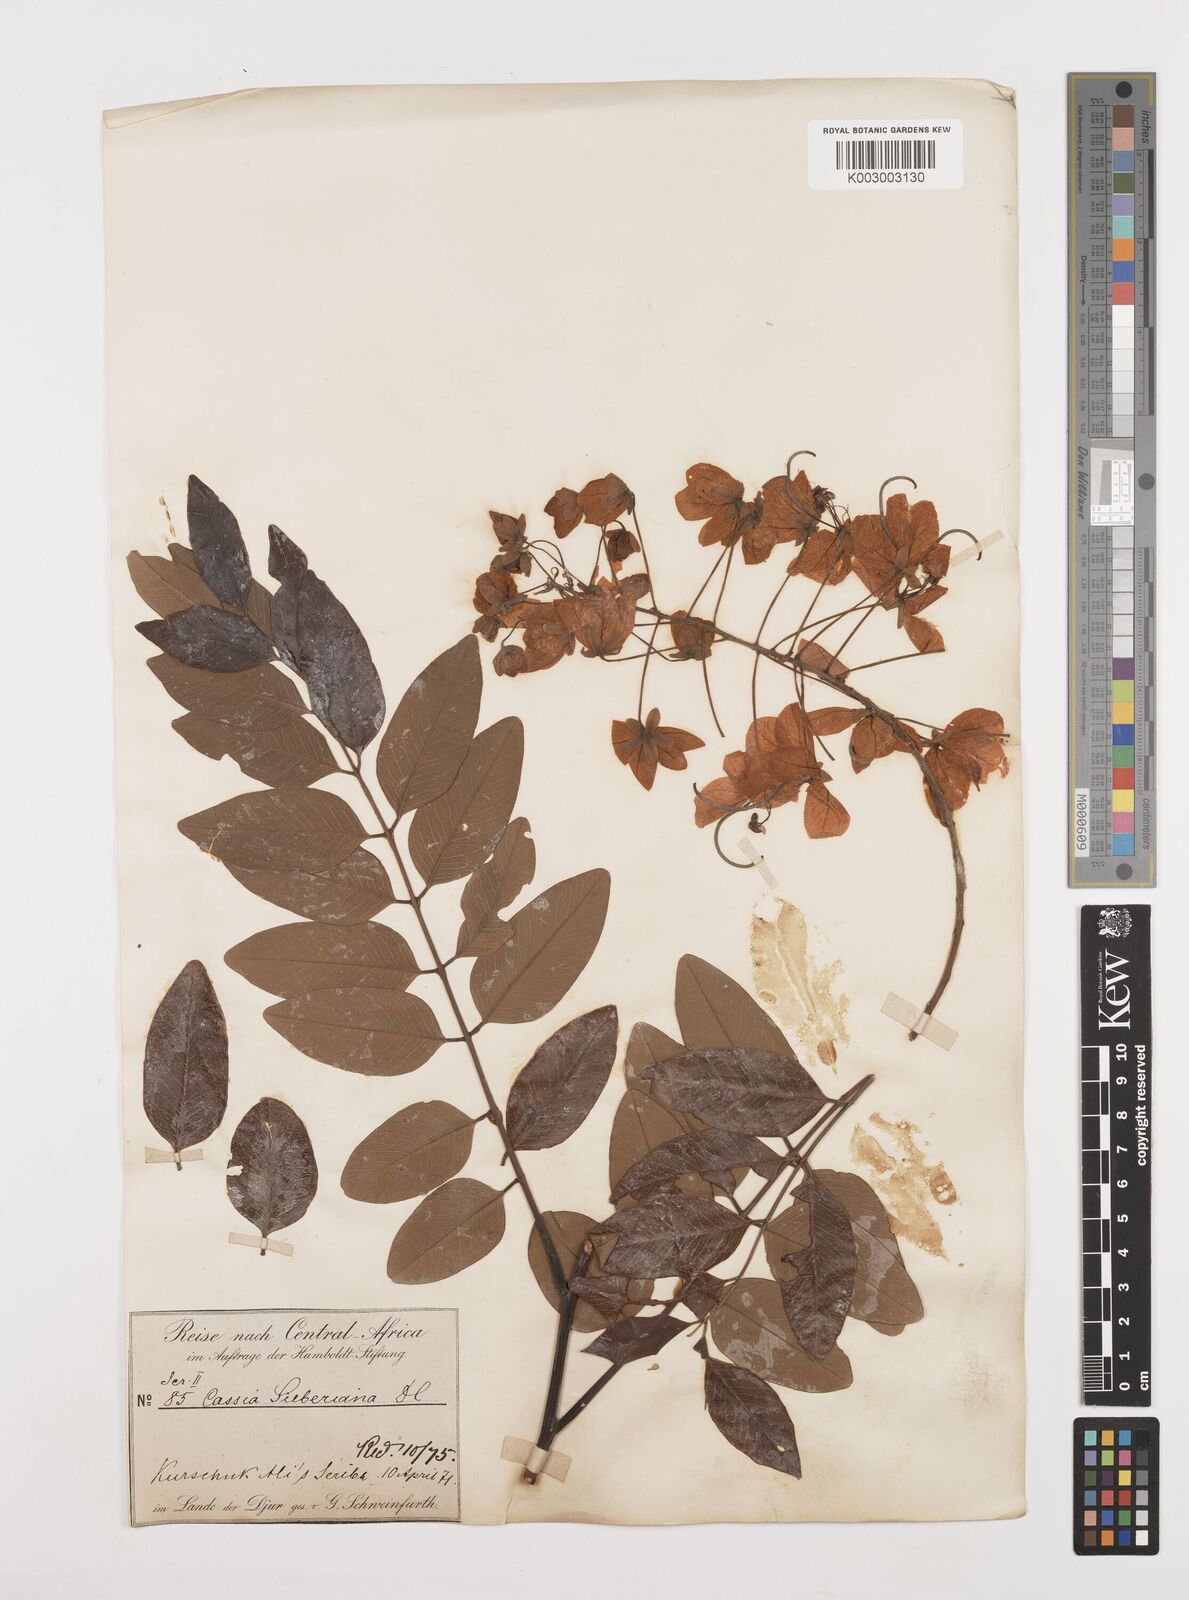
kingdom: Plantae
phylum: Tracheophyta
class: Magnoliopsida
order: Fabales
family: Fabaceae
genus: Cassia
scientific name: Cassia sieberiana
